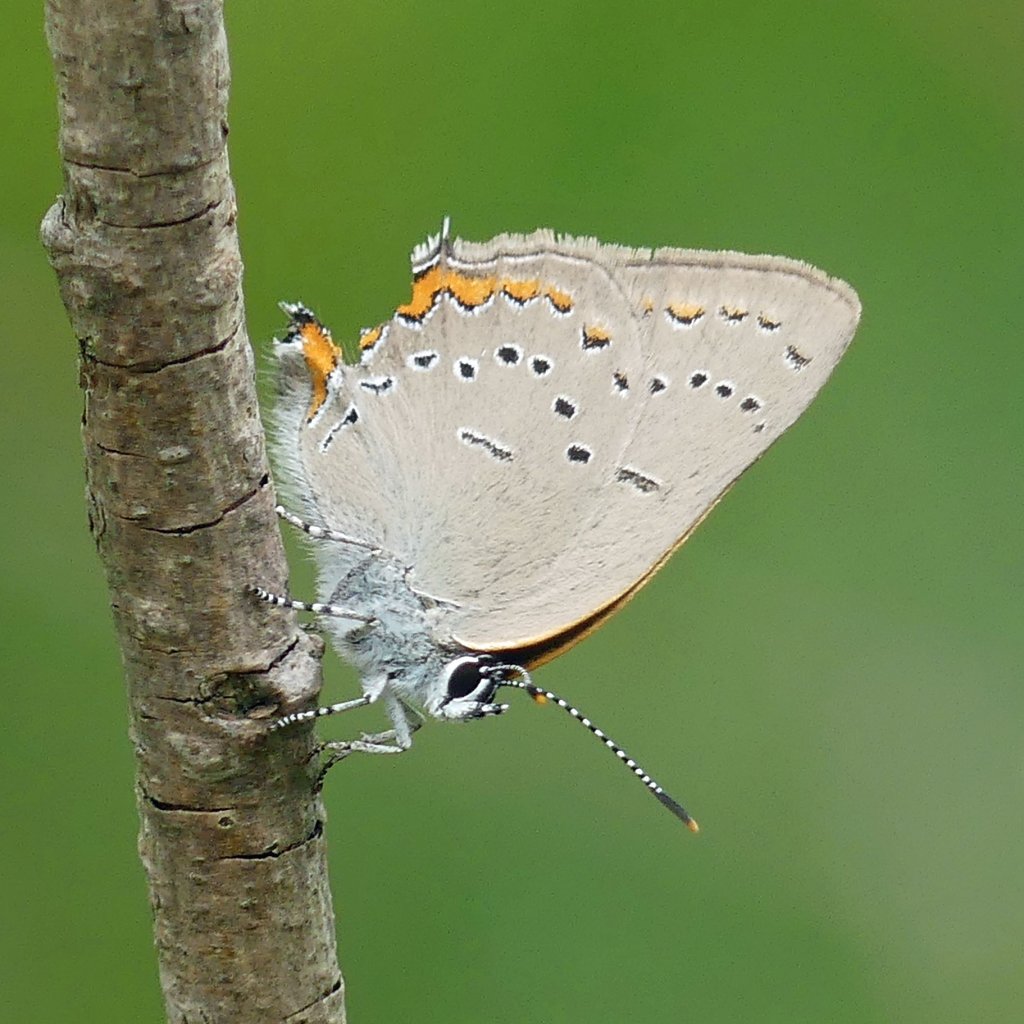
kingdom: Animalia
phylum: Arthropoda
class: Insecta
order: Lepidoptera
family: Lycaenidae
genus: Strymon
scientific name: Strymon acadica
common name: Acadian Hairstreak
